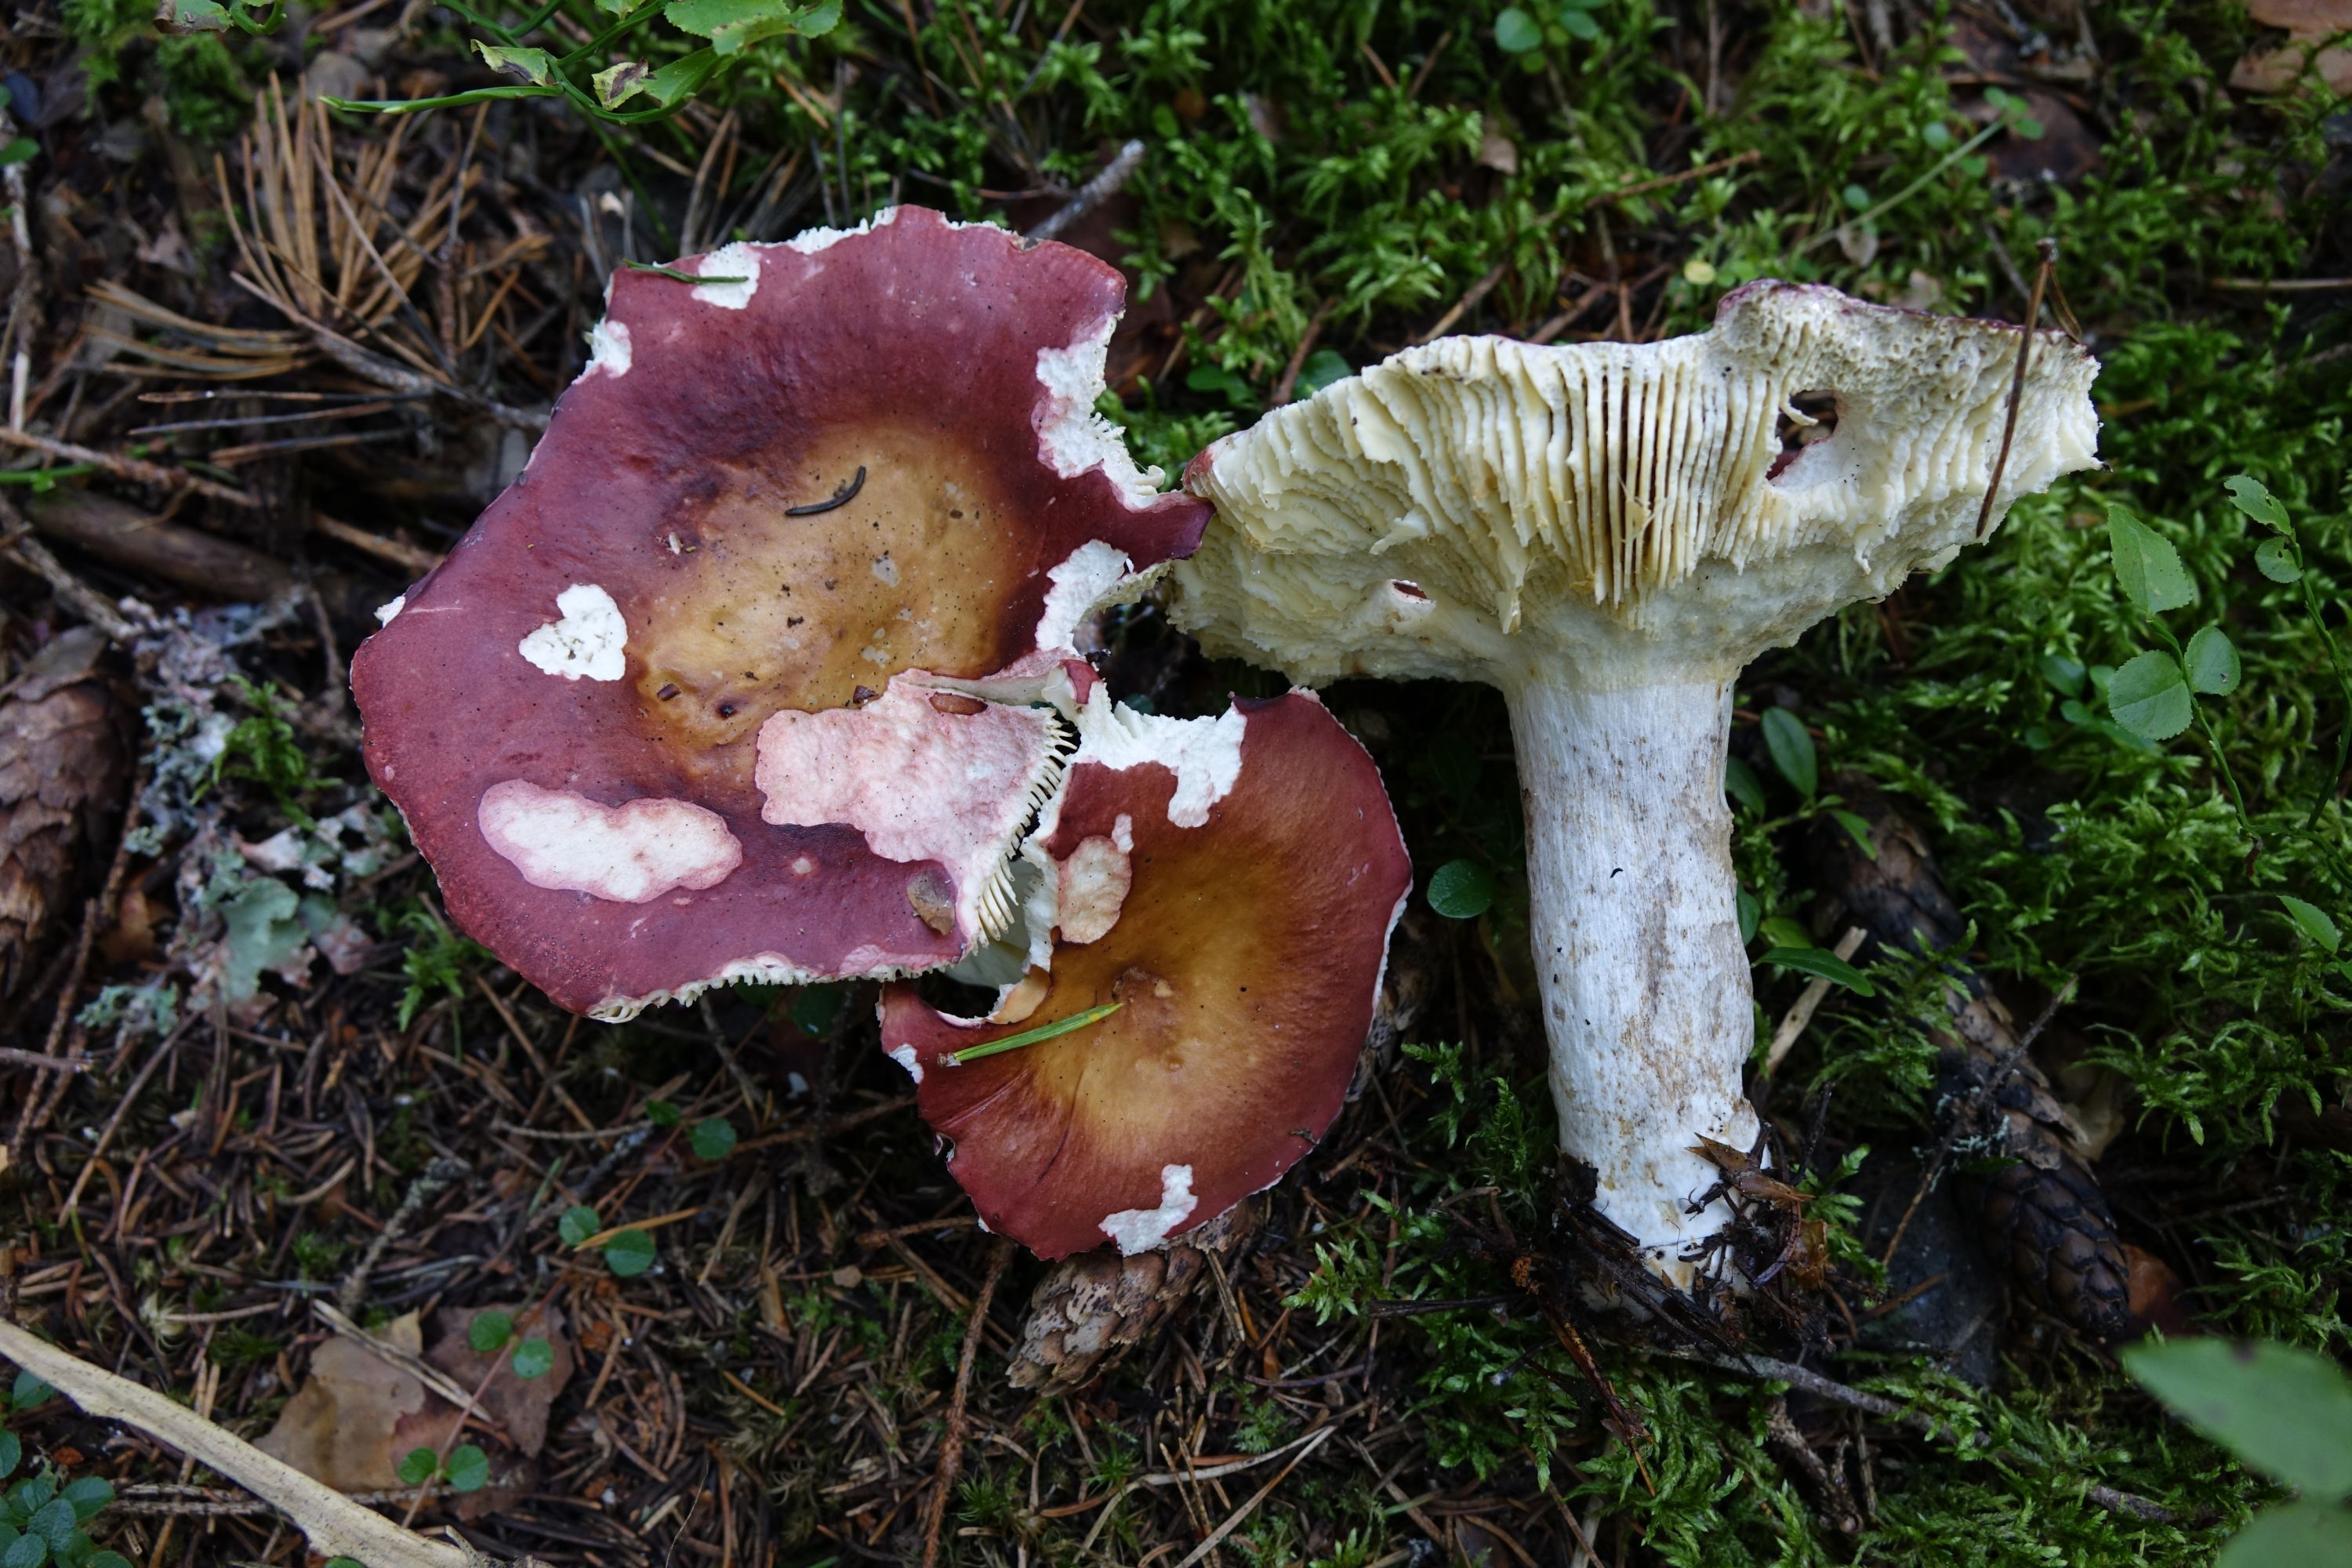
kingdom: Fungi
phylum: Basidiomycota
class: Agaricomycetes
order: Russulales
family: Russulaceae
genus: Russula
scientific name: Russula vinosa
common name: Darkening brittlegill
